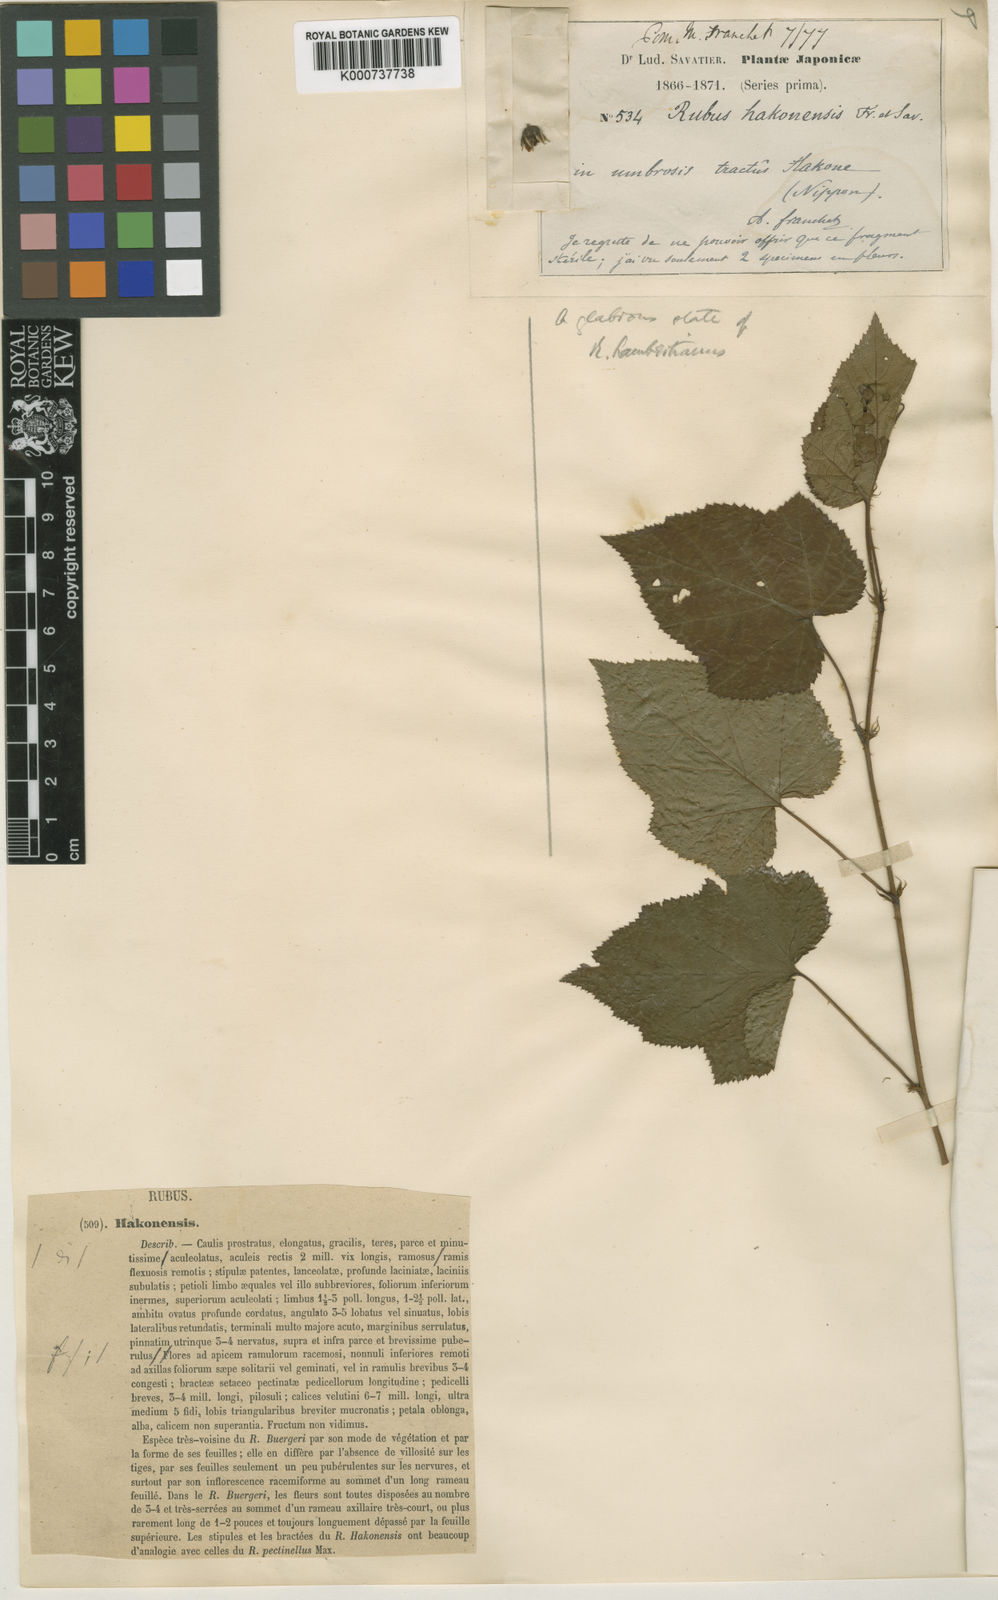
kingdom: Plantae
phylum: Tracheophyta
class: Magnoliopsida
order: Rosales
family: Rosaceae
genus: Rubus
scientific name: Rubus lambertianus
